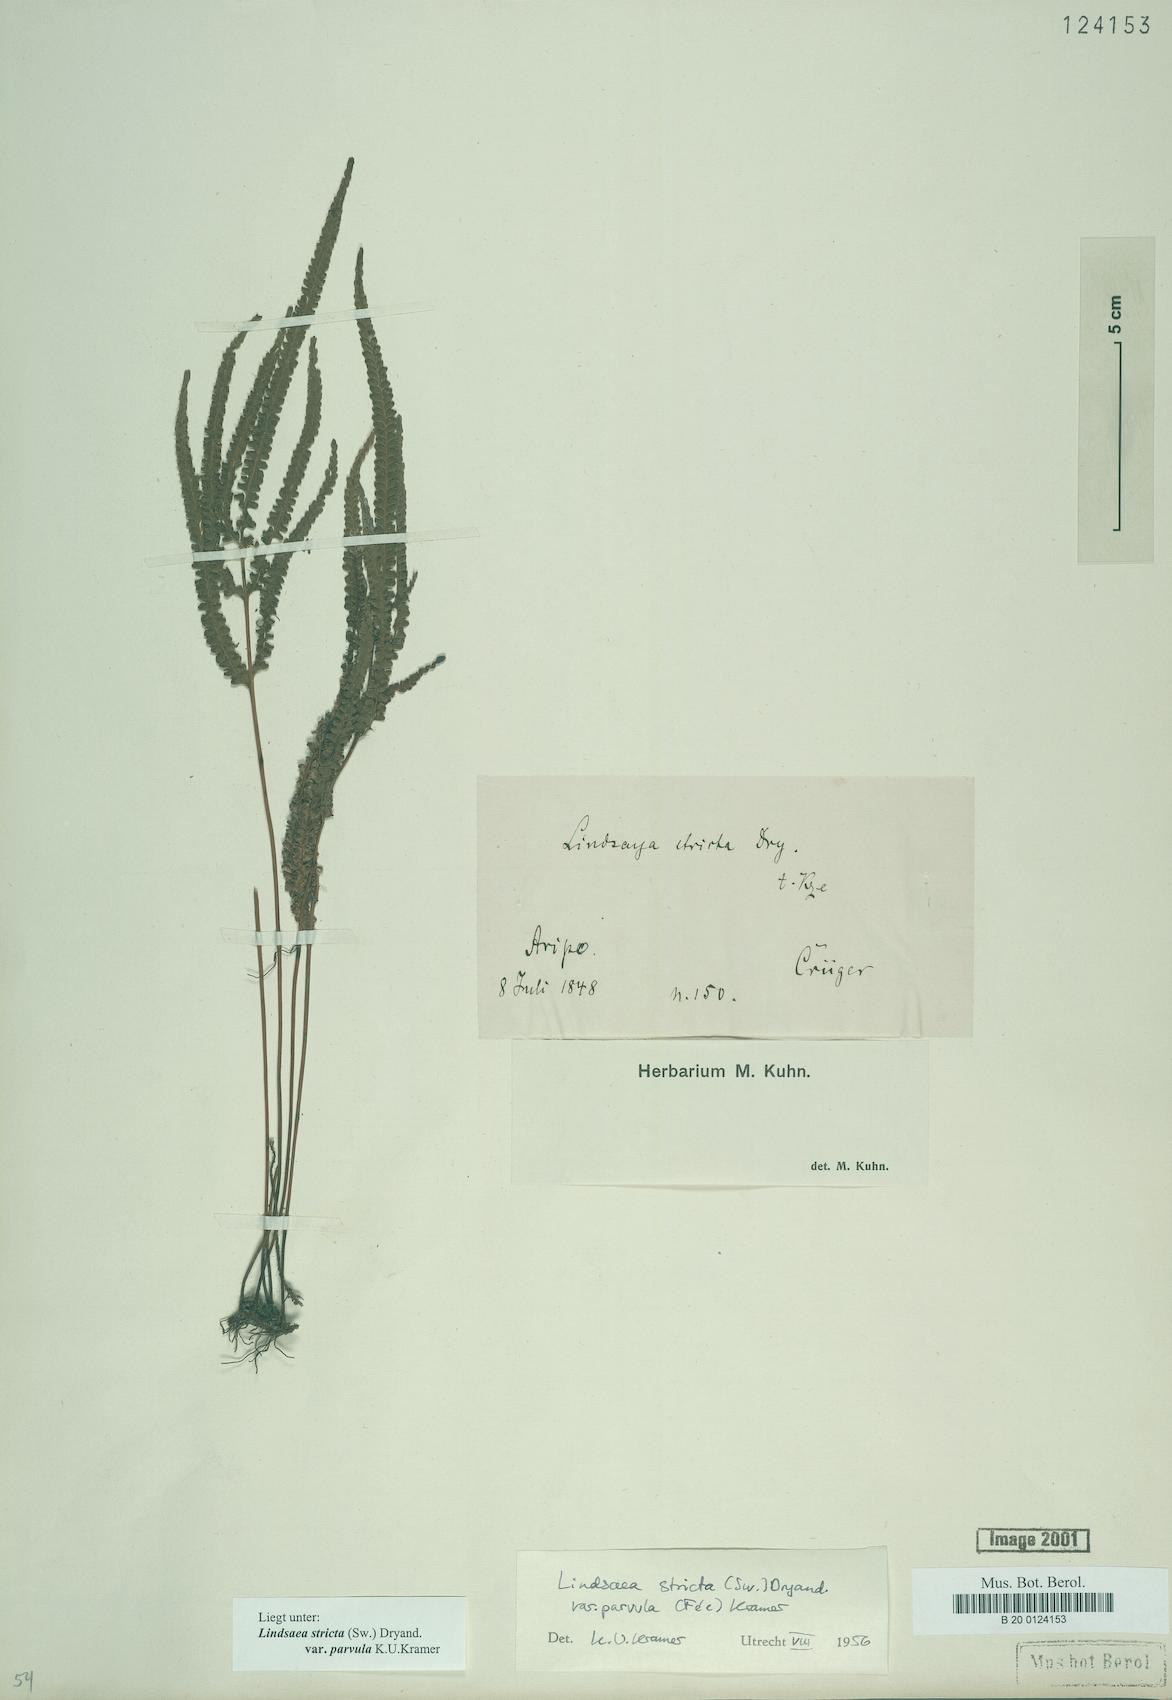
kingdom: Plantae
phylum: Tracheophyta
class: Polypodiopsida
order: Polypodiales
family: Lindsaeaceae
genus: Lindsaea
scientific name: Lindsaea stricta
